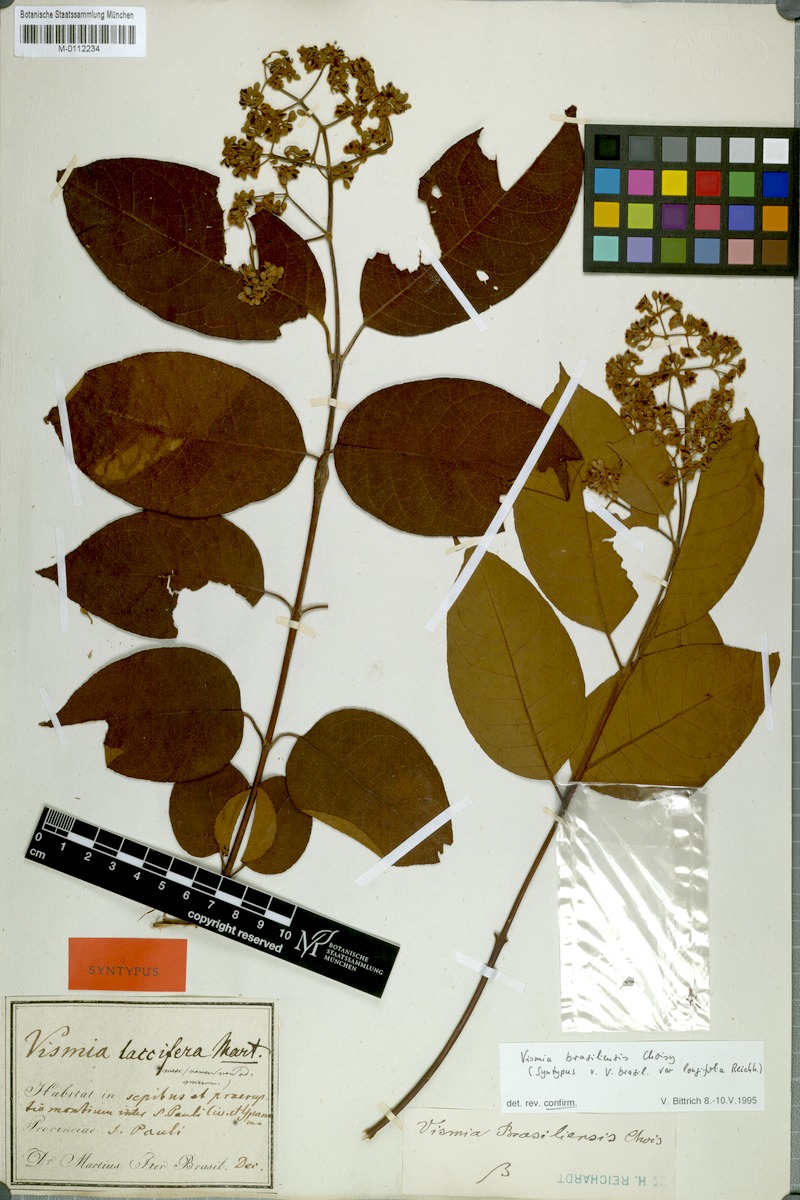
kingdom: Plantae
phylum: Tracheophyta
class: Magnoliopsida
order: Malpighiales
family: Hypericaceae
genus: Vismia
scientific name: Vismia brasiliensis
